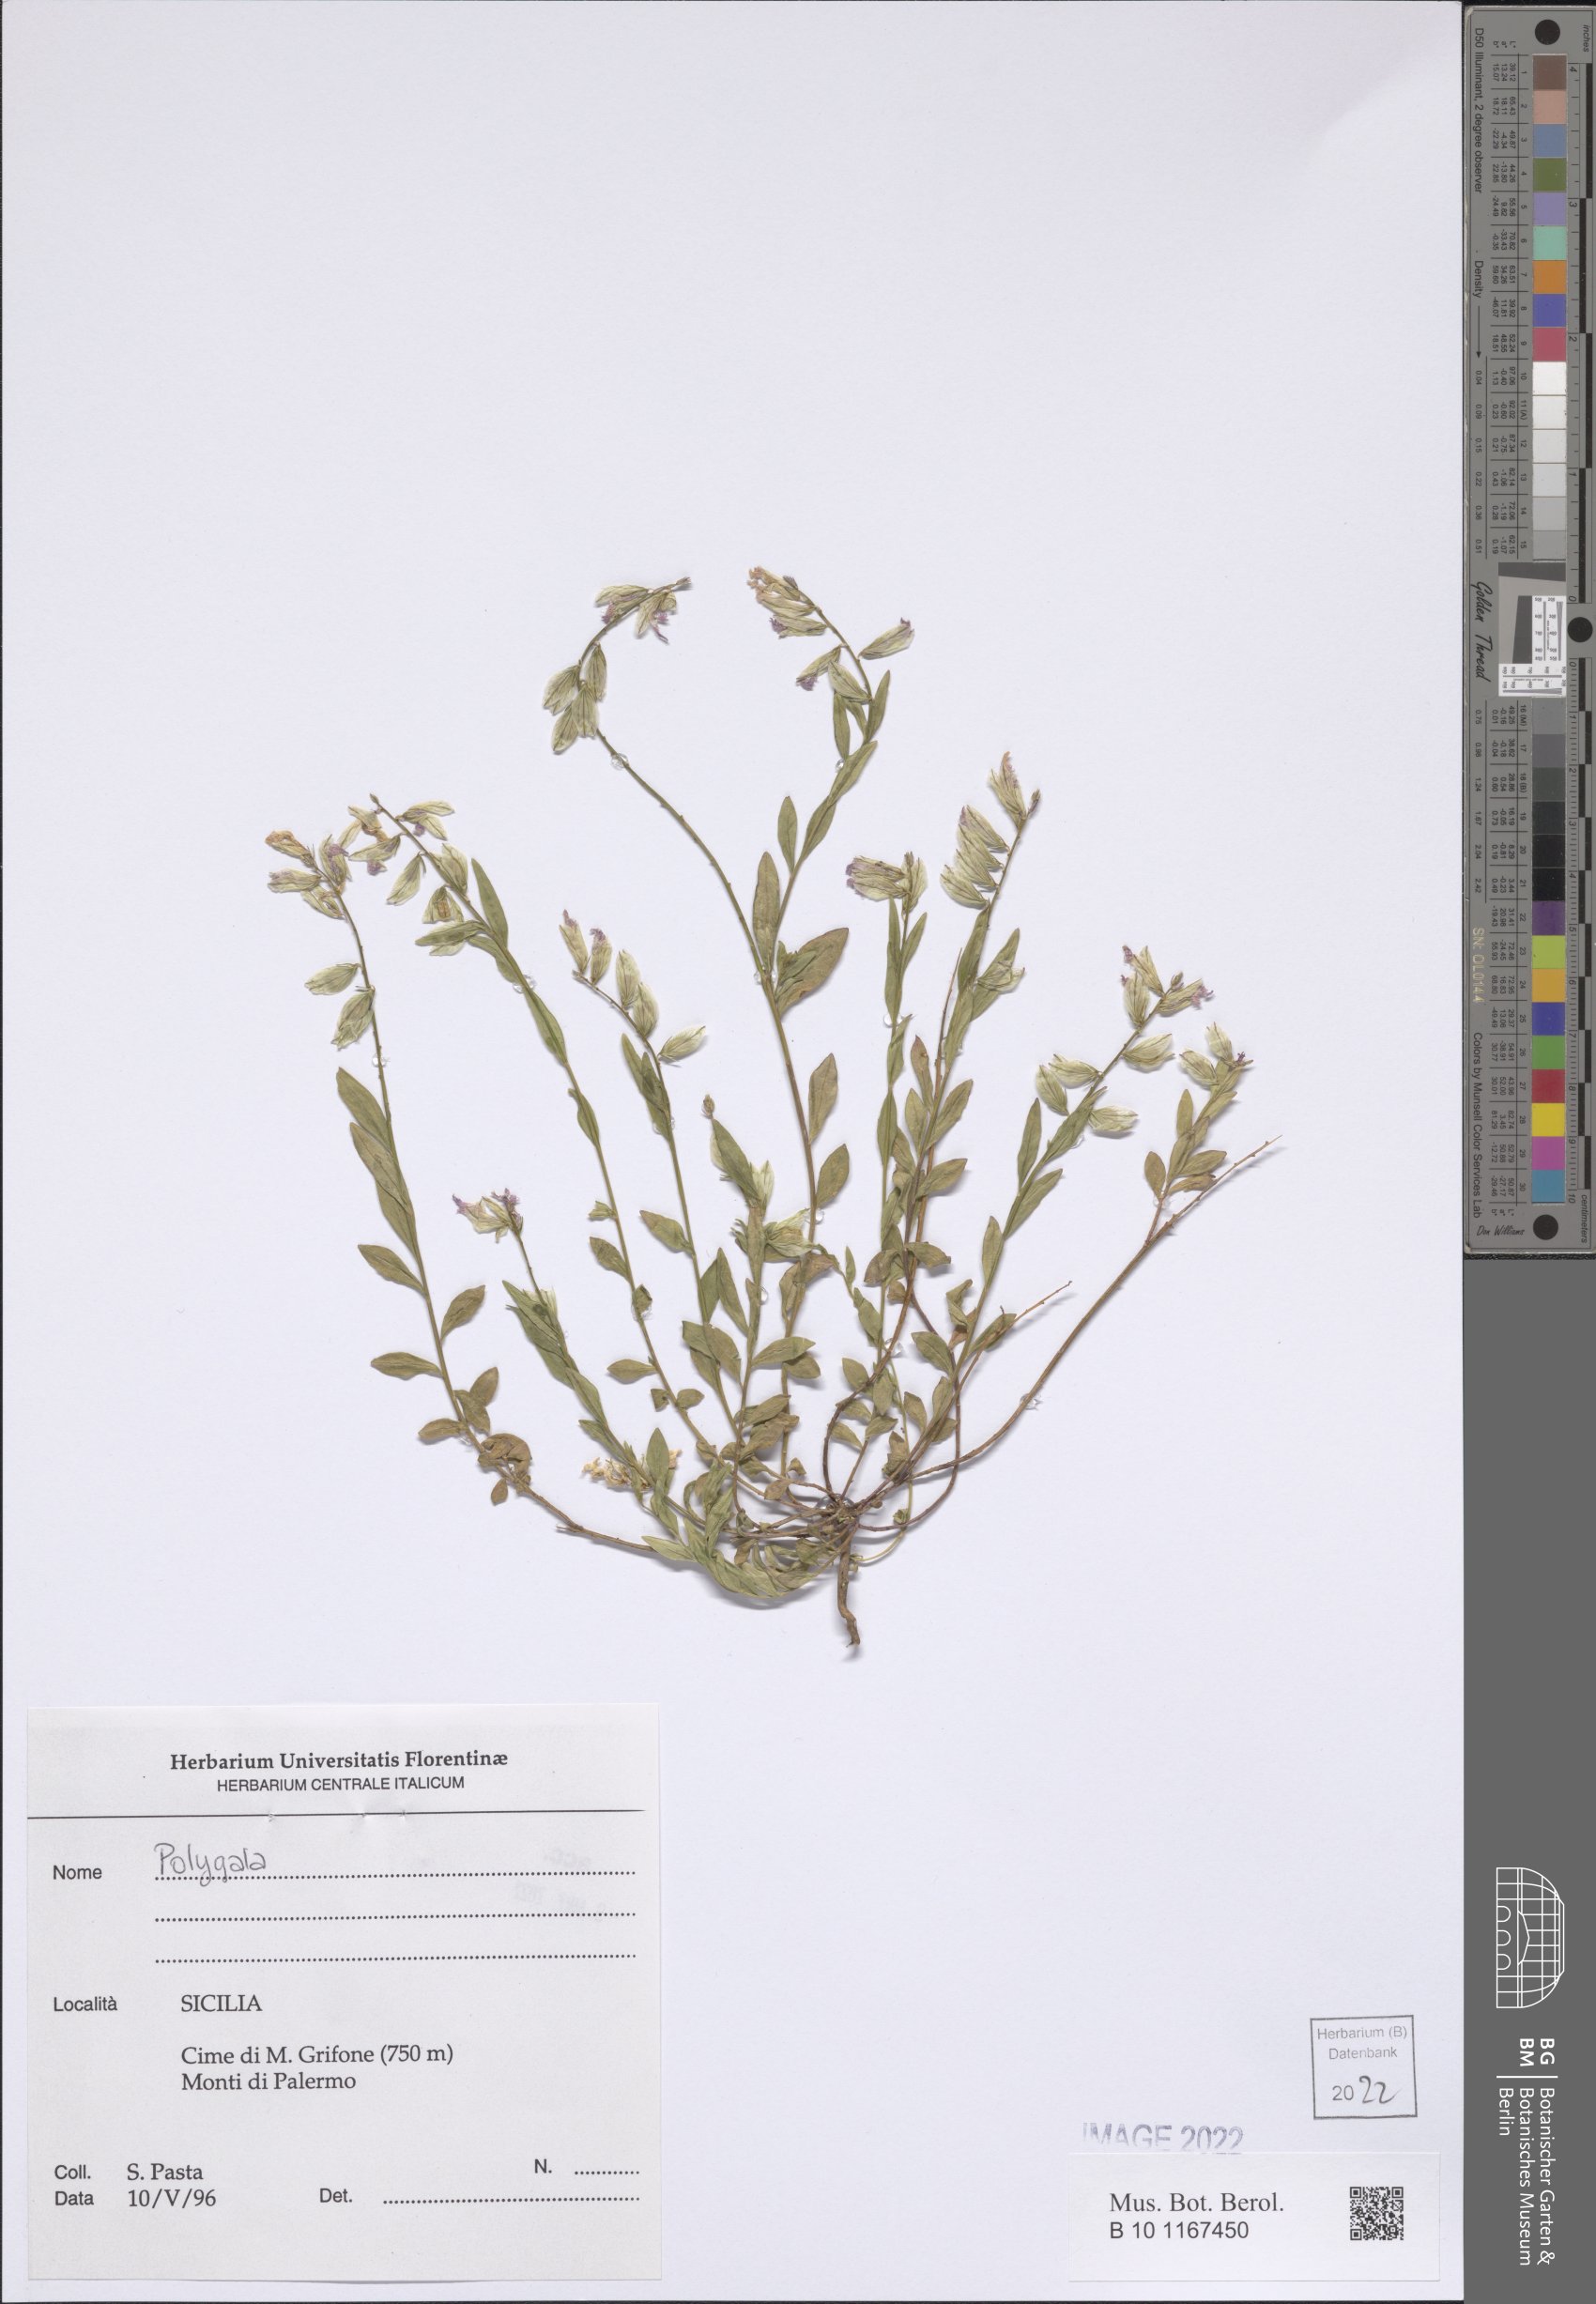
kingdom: Plantae
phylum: Tracheophyta
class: Magnoliopsida
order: Fabales
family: Polygalaceae
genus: Polygala
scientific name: Polygala
